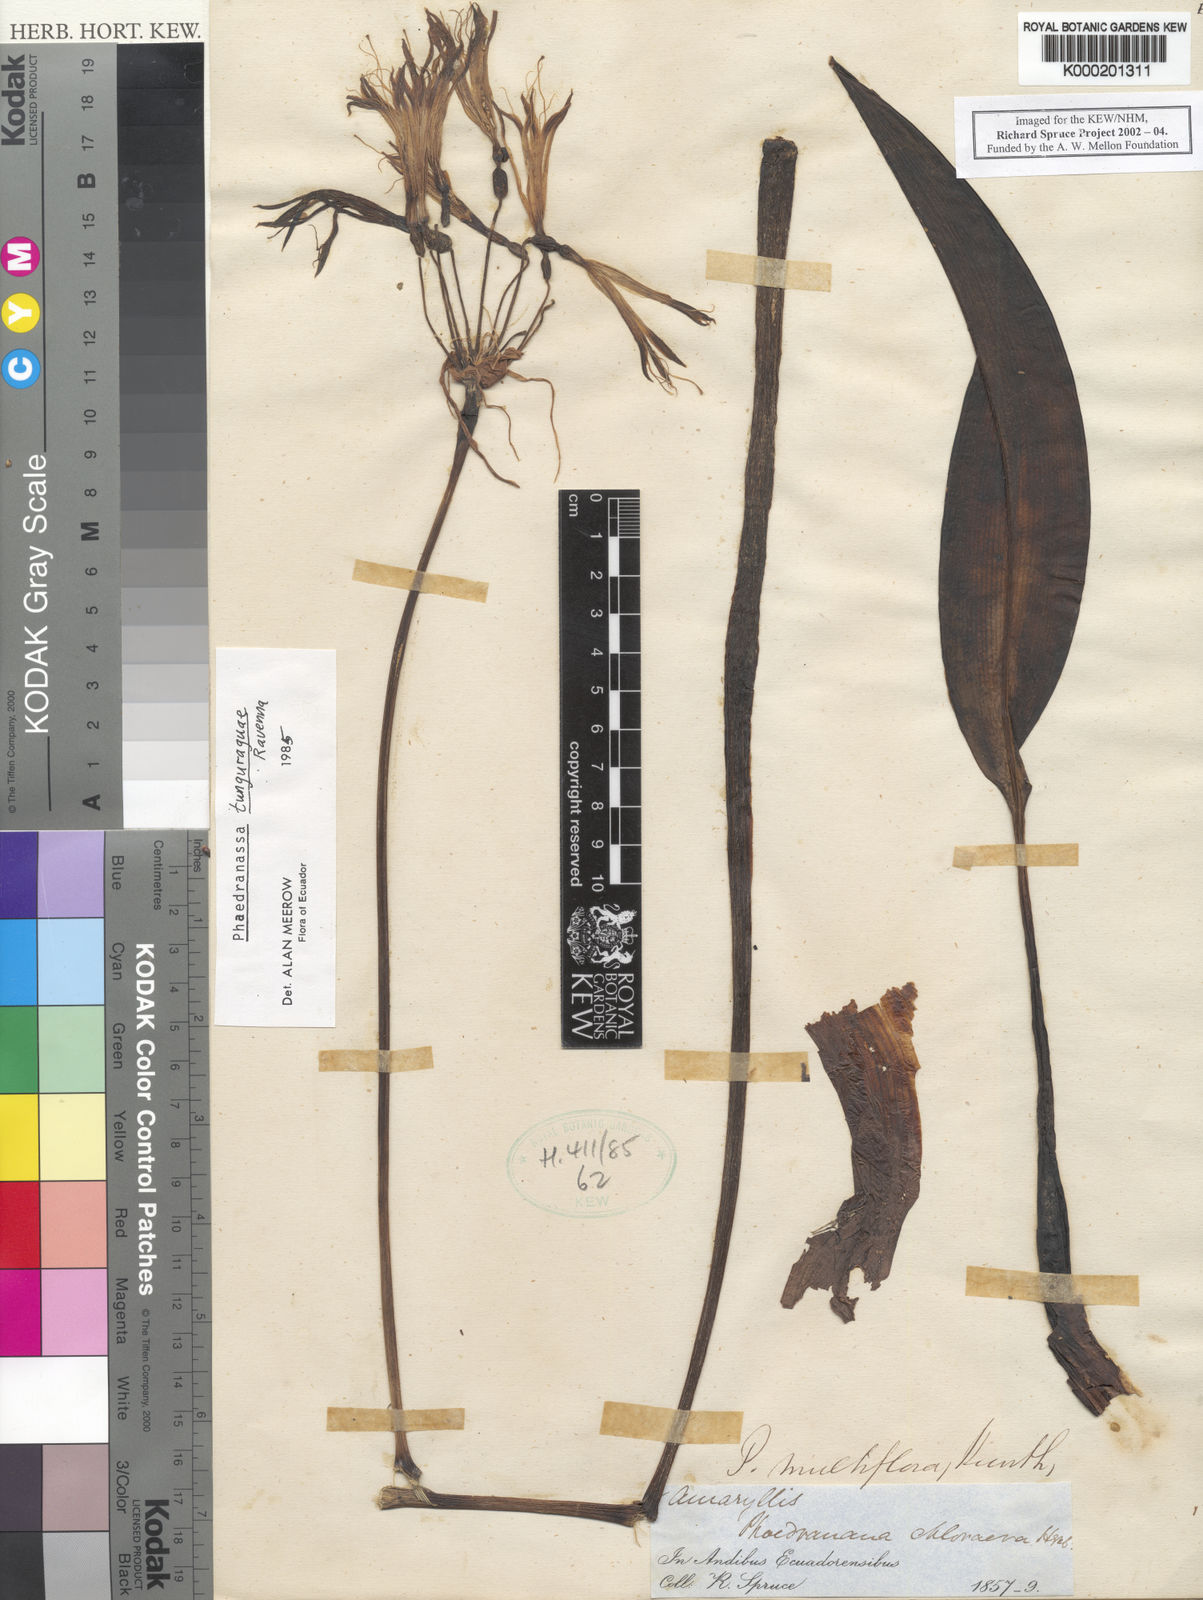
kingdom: Plantae
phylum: Tracheophyta
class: Liliopsida
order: Asparagales
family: Amaryllidaceae
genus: Phaedranassa
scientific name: Phaedranassa tunguraguae
